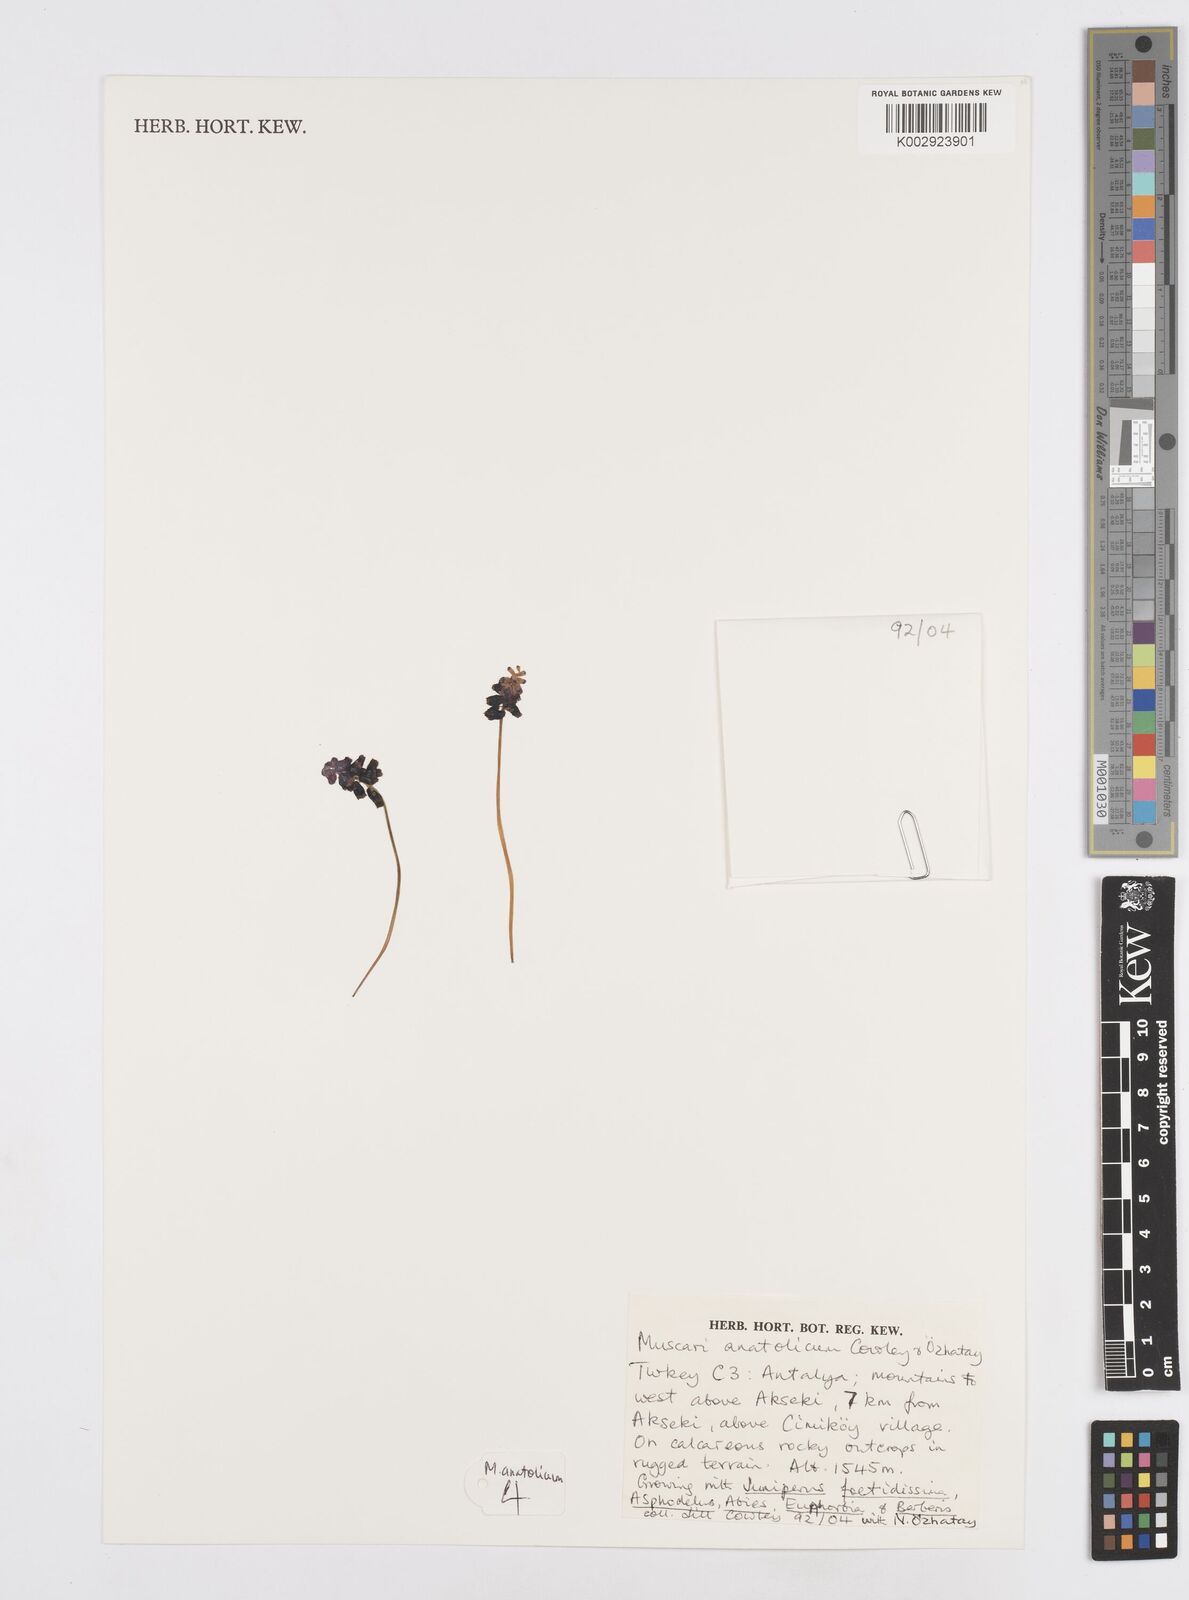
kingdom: Plantae
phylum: Tracheophyta
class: Liliopsida
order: Asparagales
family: Asparagaceae
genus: Muscari
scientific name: Muscari anatolicum
